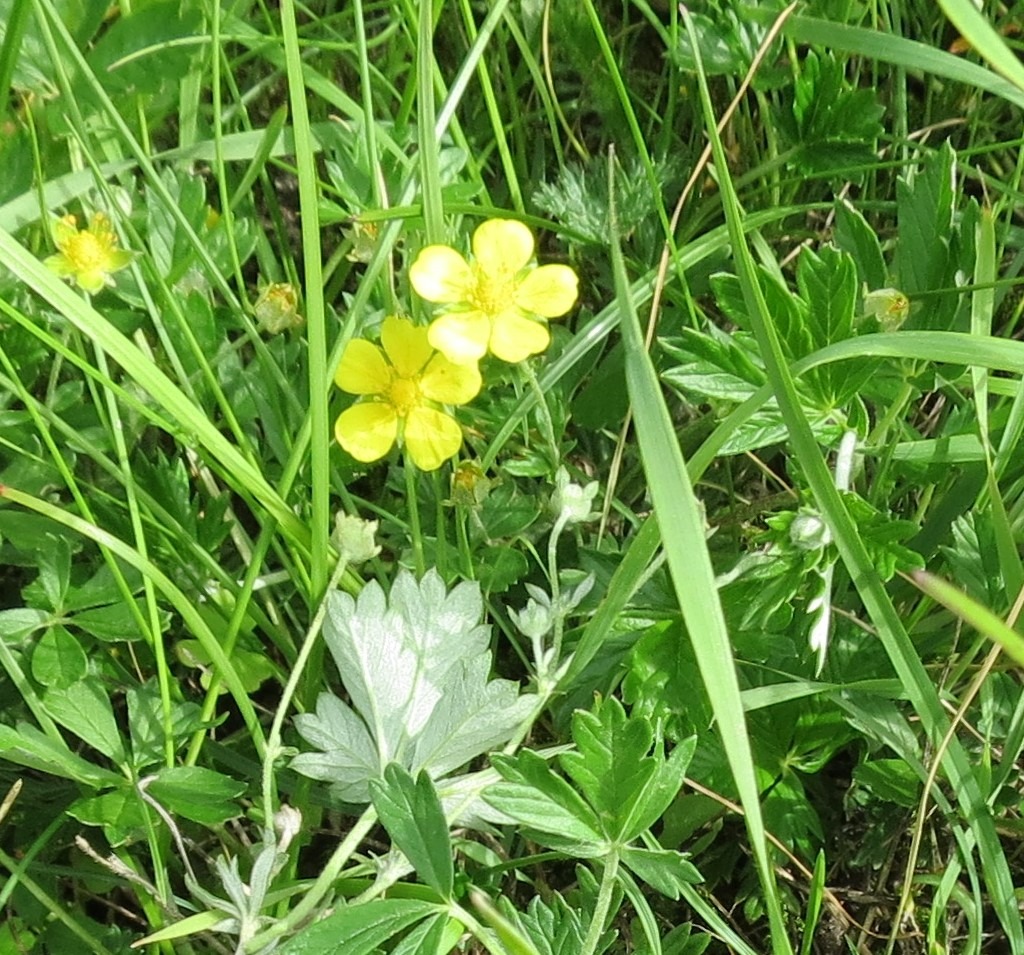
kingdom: Plantae
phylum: Tracheophyta
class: Magnoliopsida
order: Rosales
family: Rosaceae
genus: Potentilla
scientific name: Potentilla argentea
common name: Sølv-potentil
